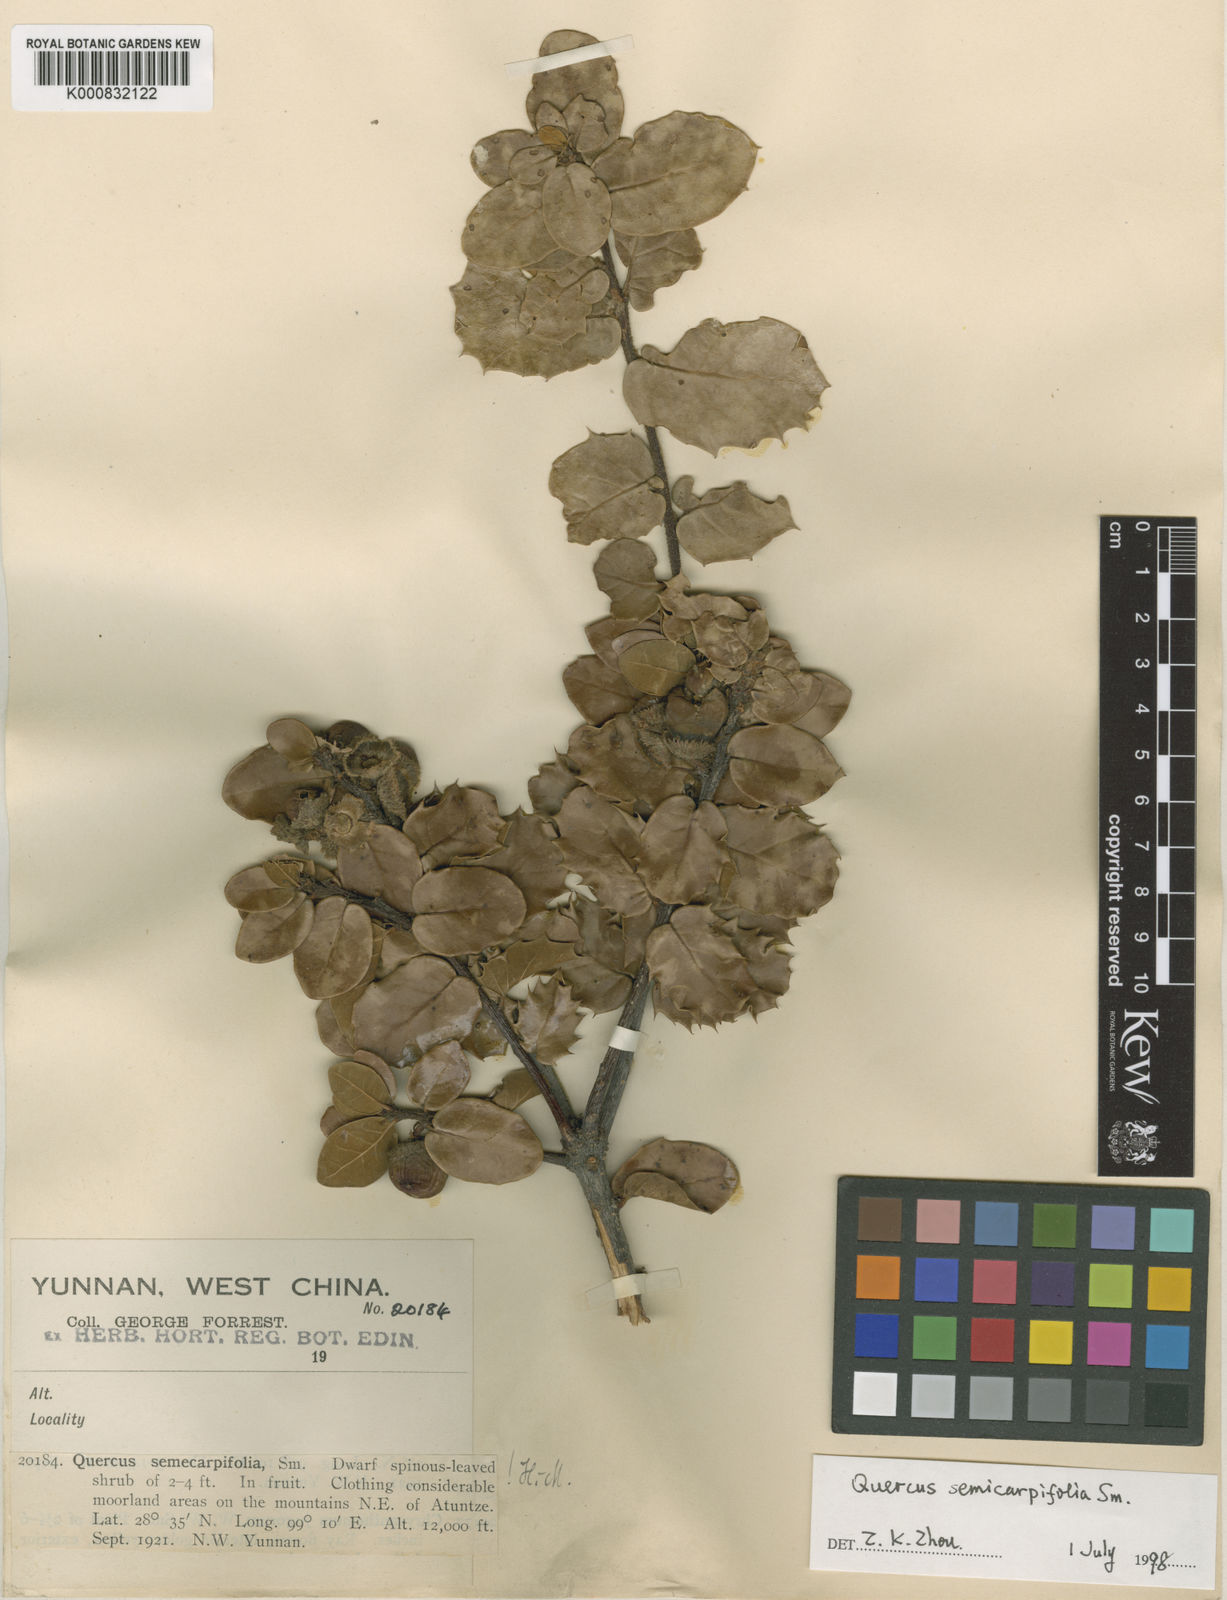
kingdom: Plantae
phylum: Tracheophyta
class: Magnoliopsida
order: Fagales
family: Fagaceae
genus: Quercus
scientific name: Quercus semecarpifolia
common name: Brown oak
